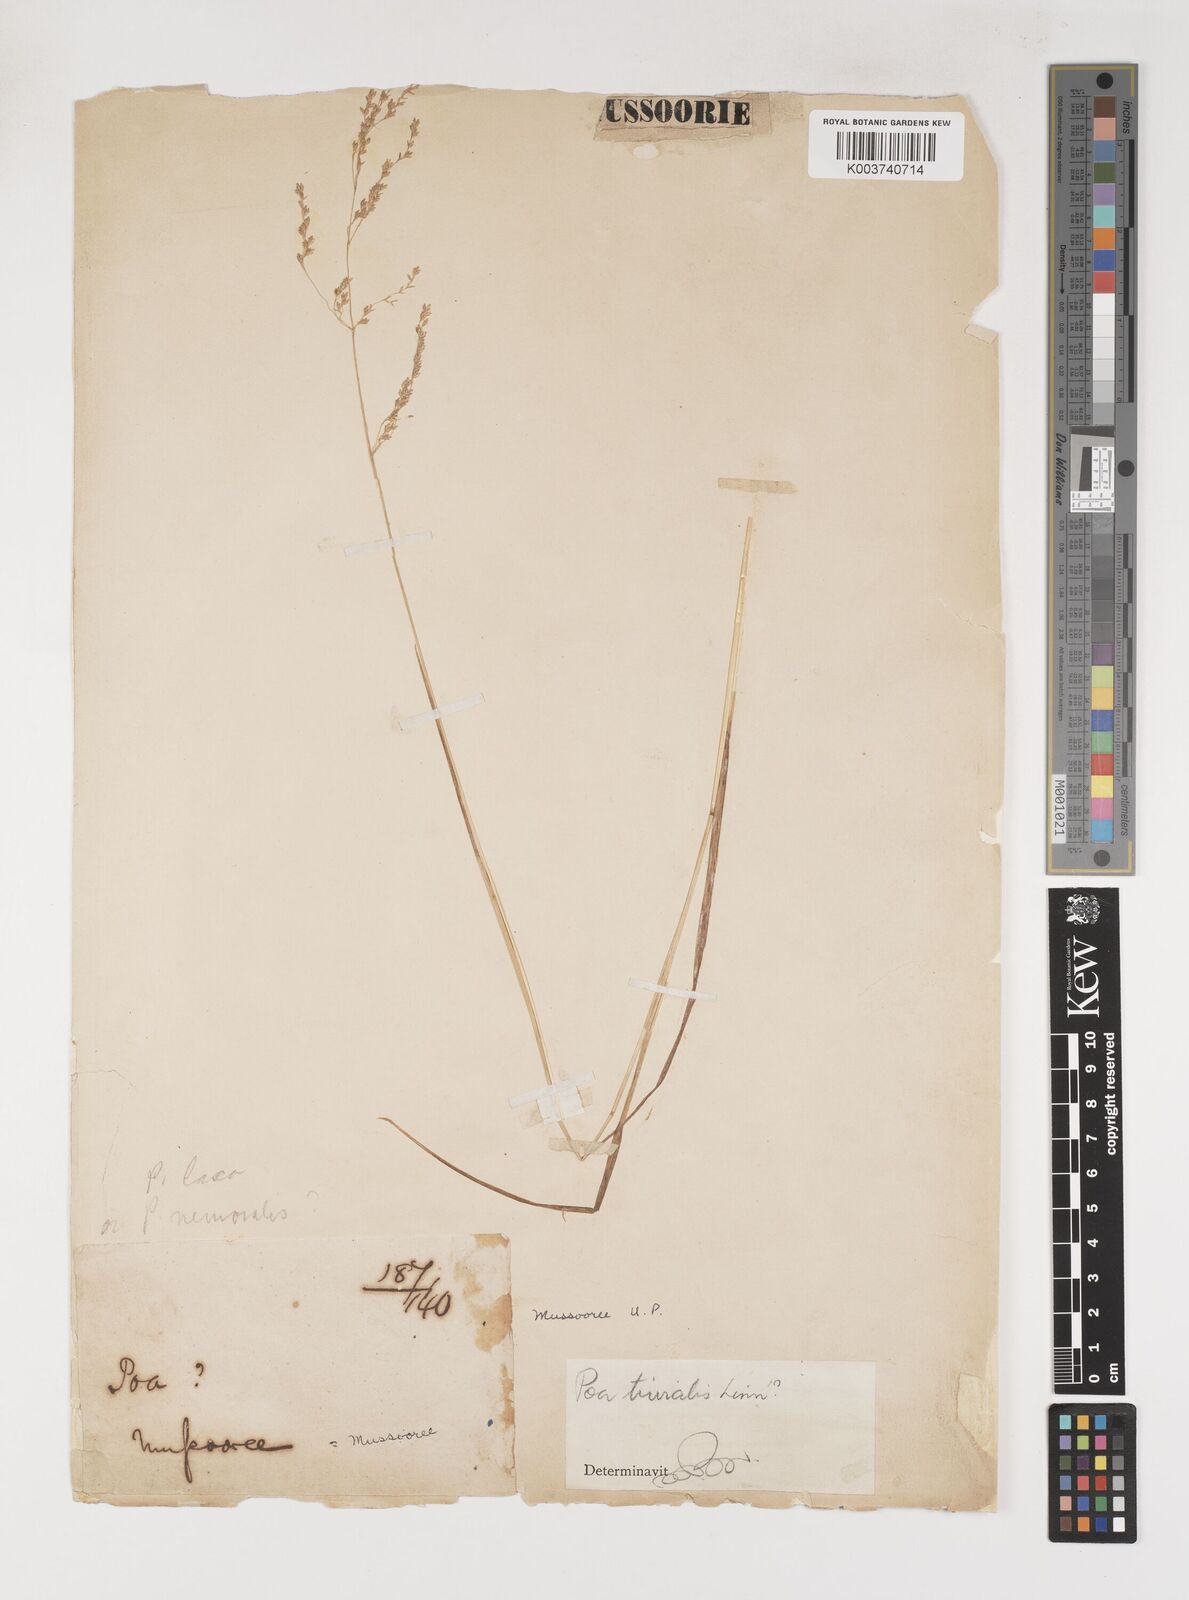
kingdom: Plantae
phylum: Tracheophyta
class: Liliopsida
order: Poales
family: Poaceae
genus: Poa
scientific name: Poa trivialis
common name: Rough bluegrass
